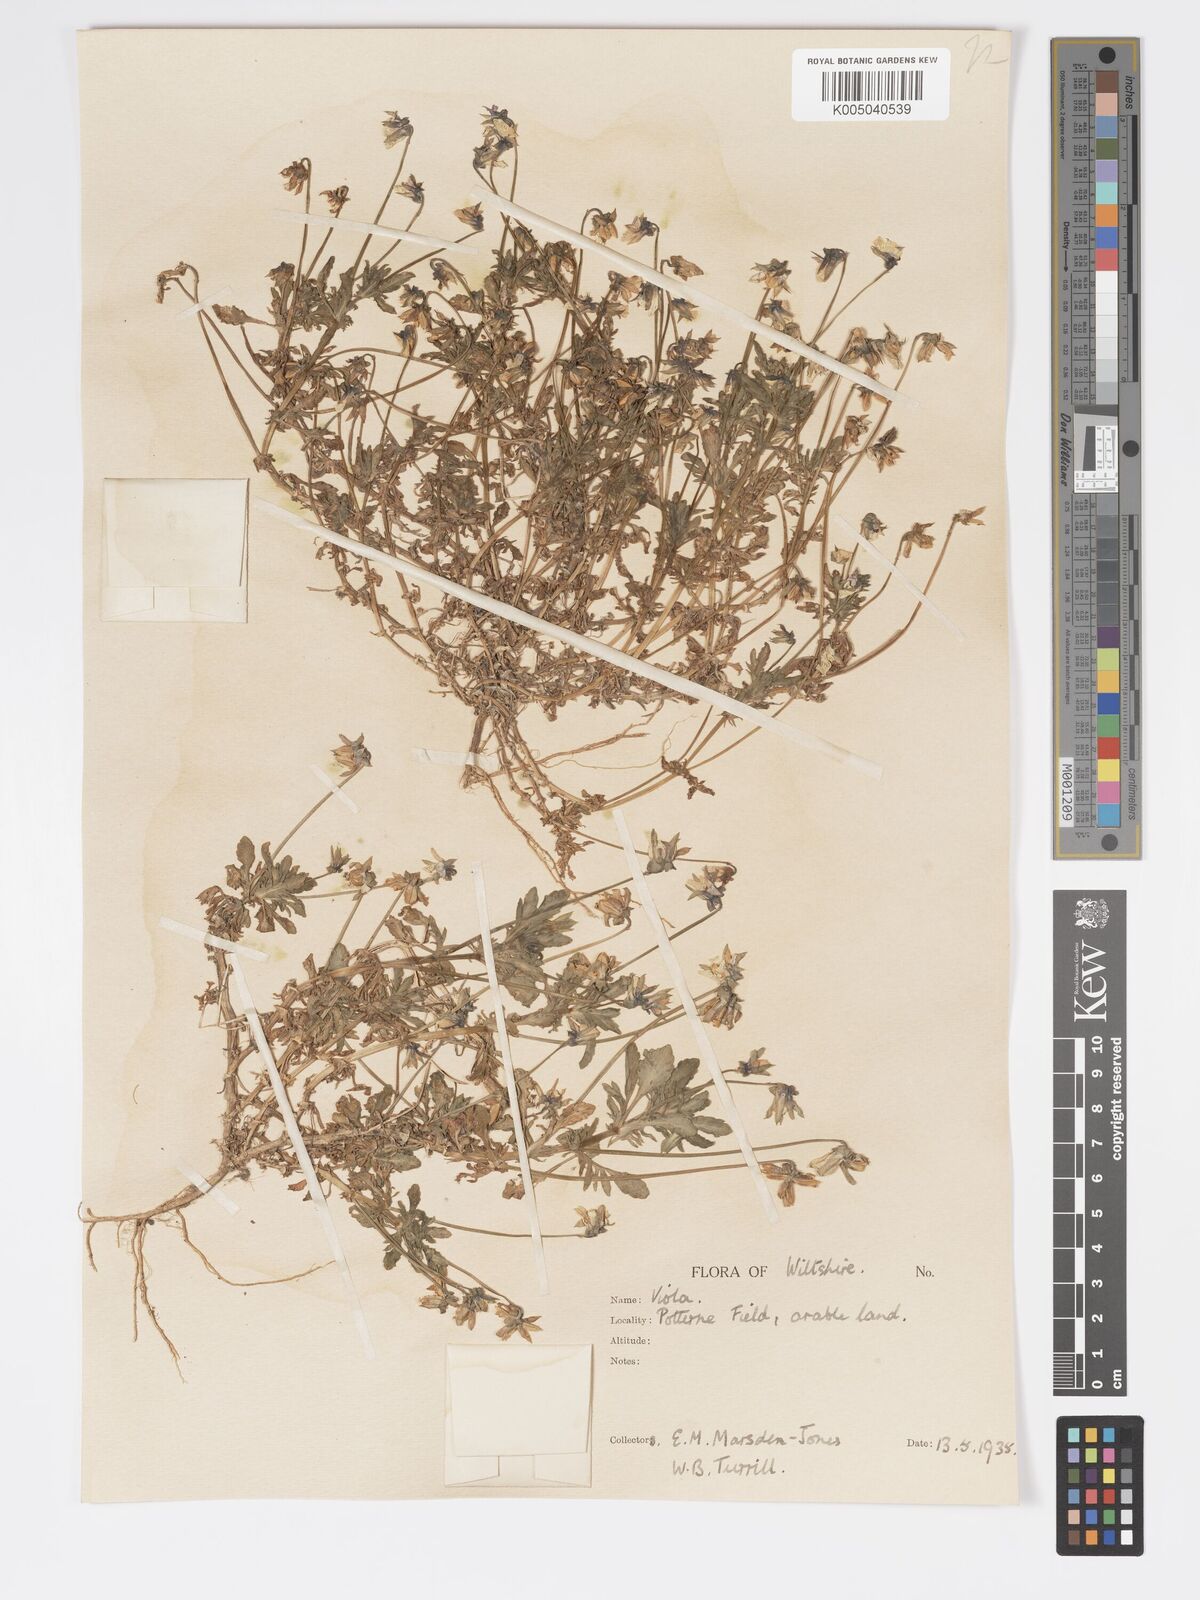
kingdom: Plantae
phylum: Tracheophyta
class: Magnoliopsida
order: Malpighiales
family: Violaceae
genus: Viola
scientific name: Viola
